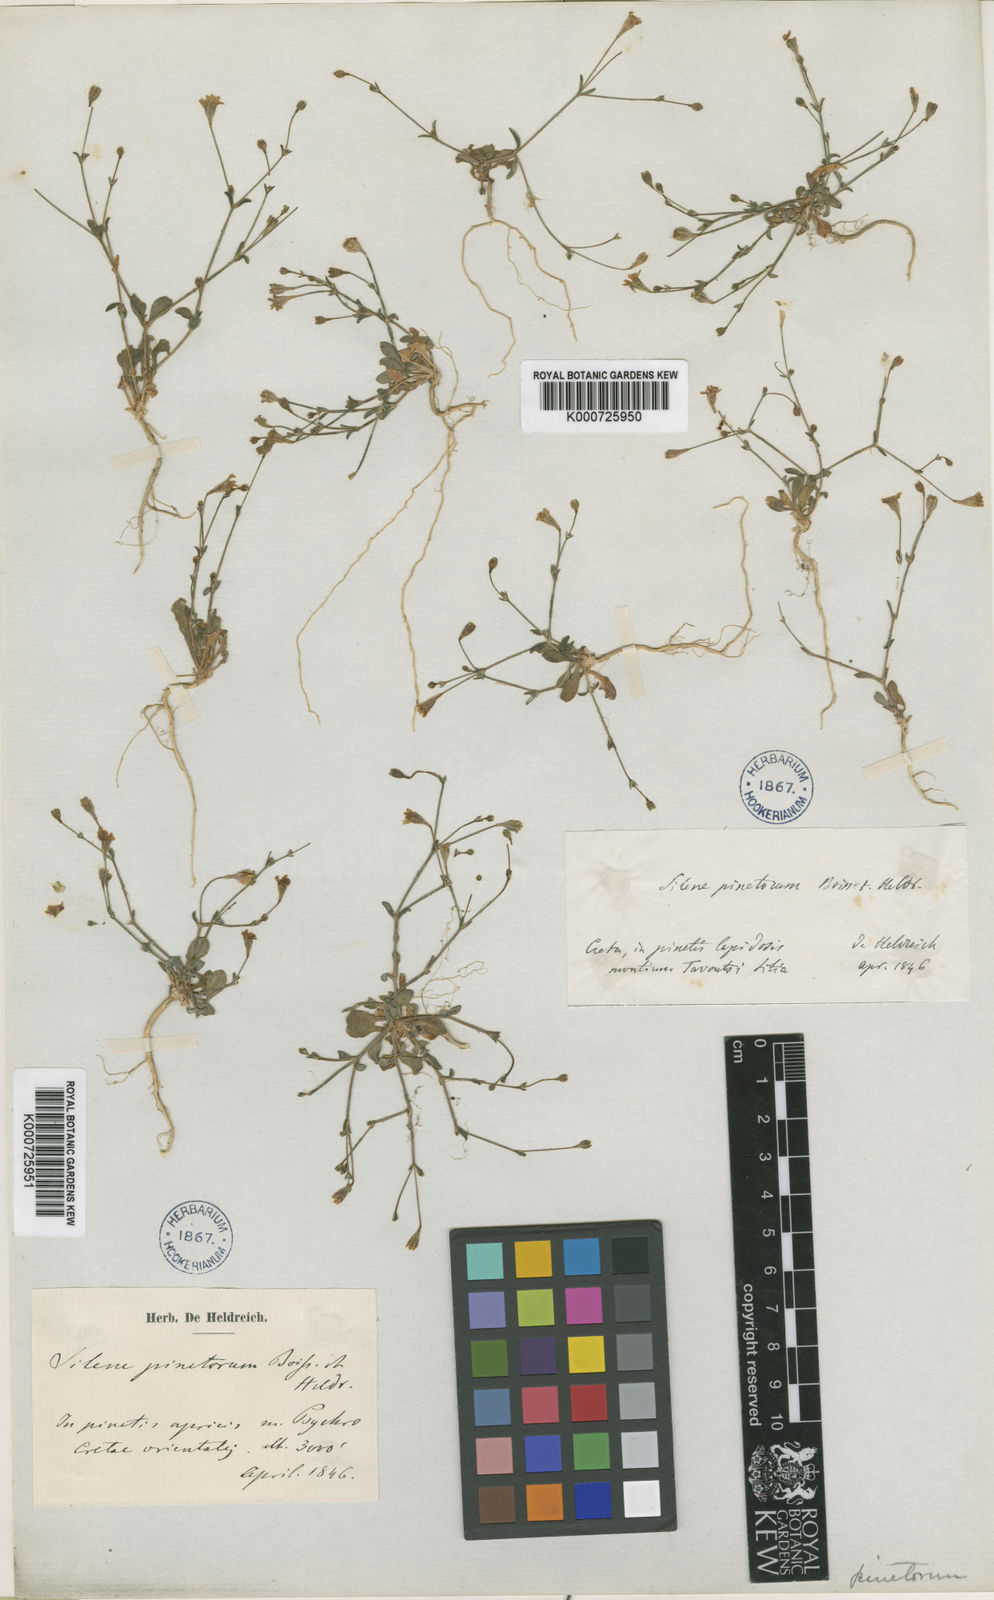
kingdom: Plantae
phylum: Tracheophyta
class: Magnoliopsida
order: Caryophyllales
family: Caryophyllaceae
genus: Silene
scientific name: Silene pinetorum
